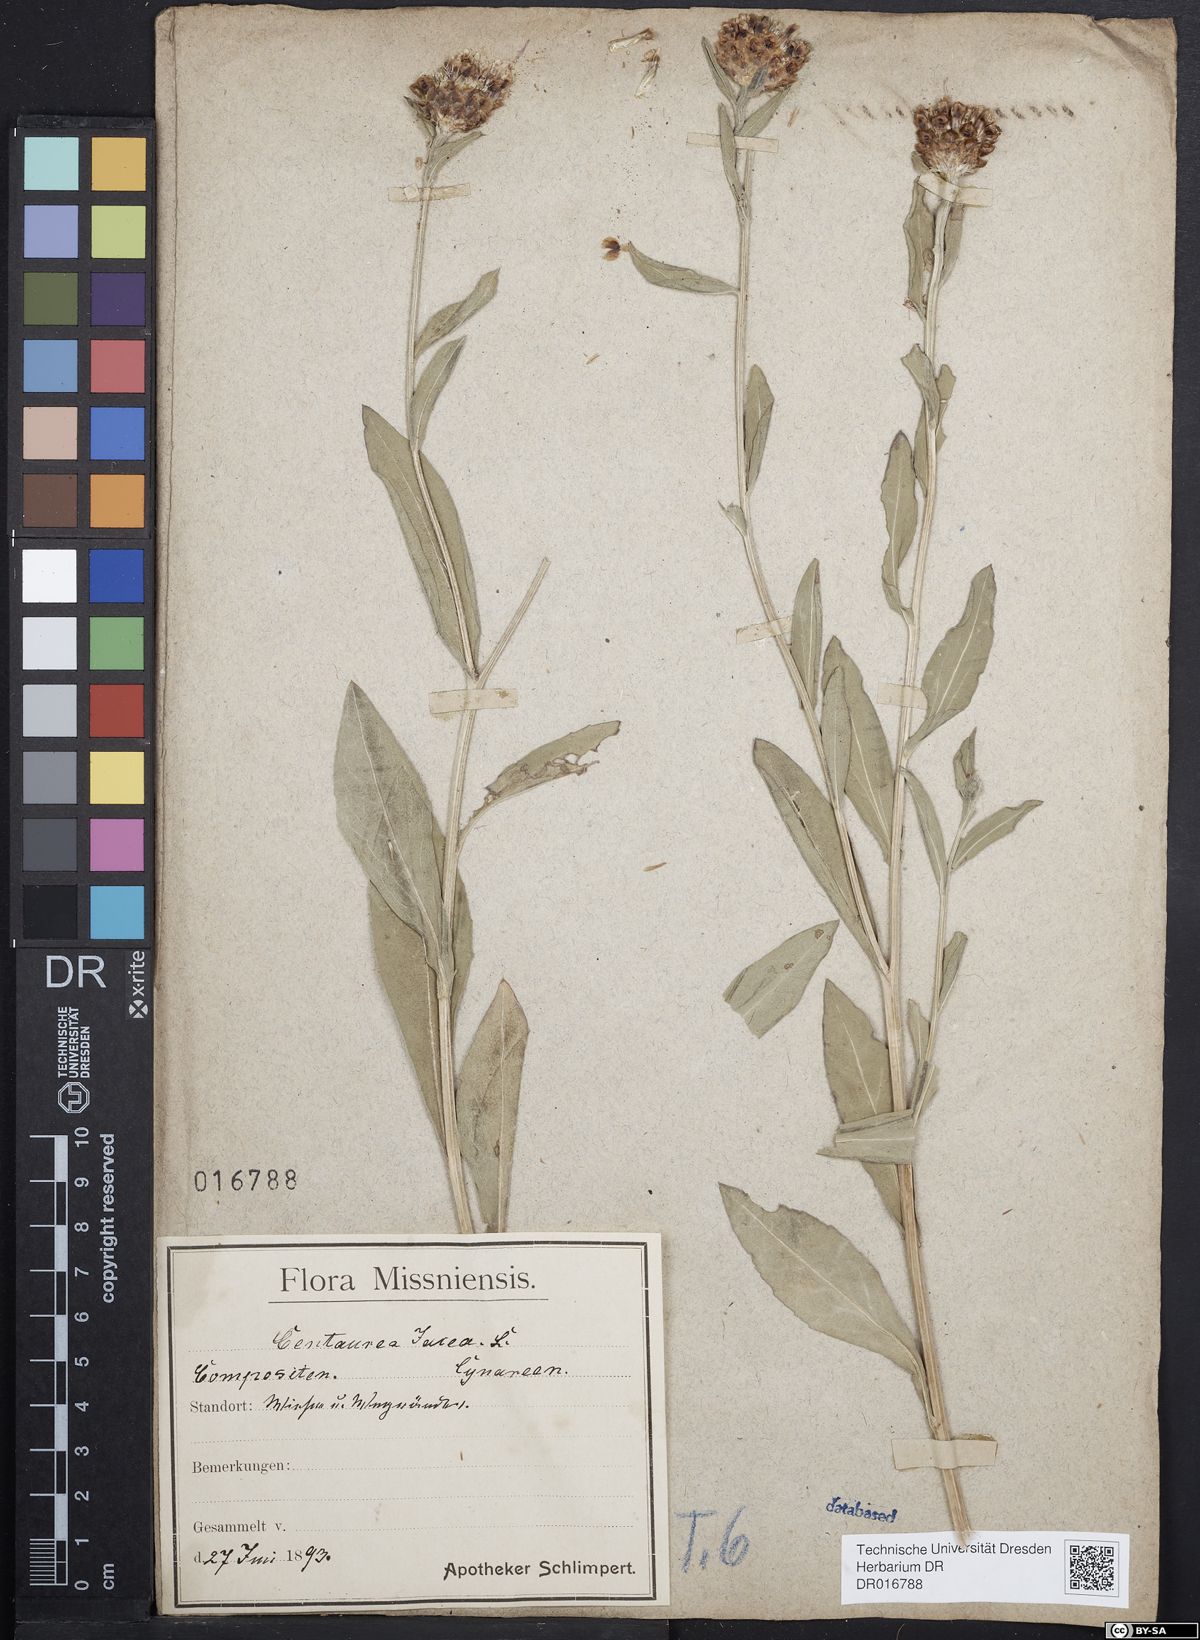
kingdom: Plantae
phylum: Tracheophyta
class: Magnoliopsida
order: Asterales
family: Asteraceae
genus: Centaurea
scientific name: Centaurea jacea
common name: Brown knapweed
